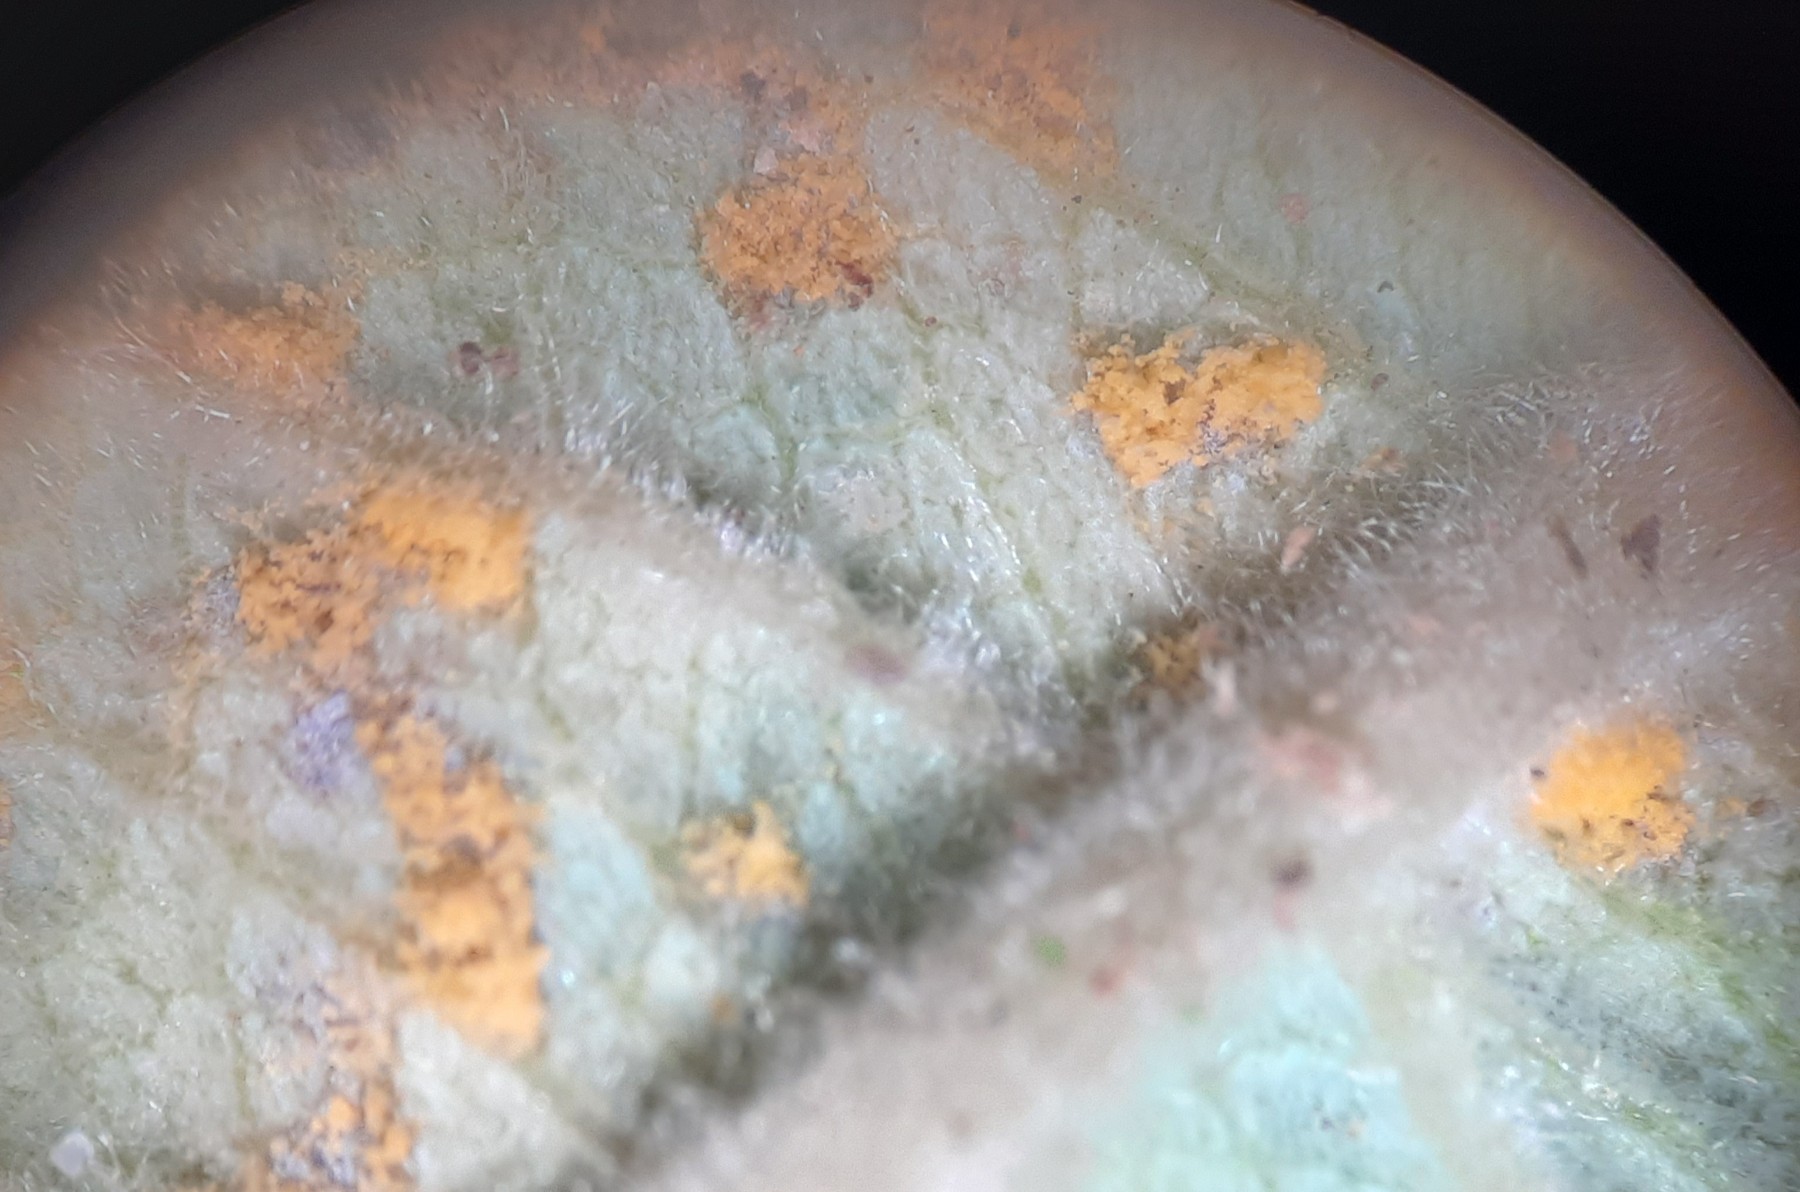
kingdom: Fungi
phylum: Basidiomycota
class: Pucciniomycetes
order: Pucciniales
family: Melampsoraceae
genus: Melampsora
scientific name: Melampsora epitea
